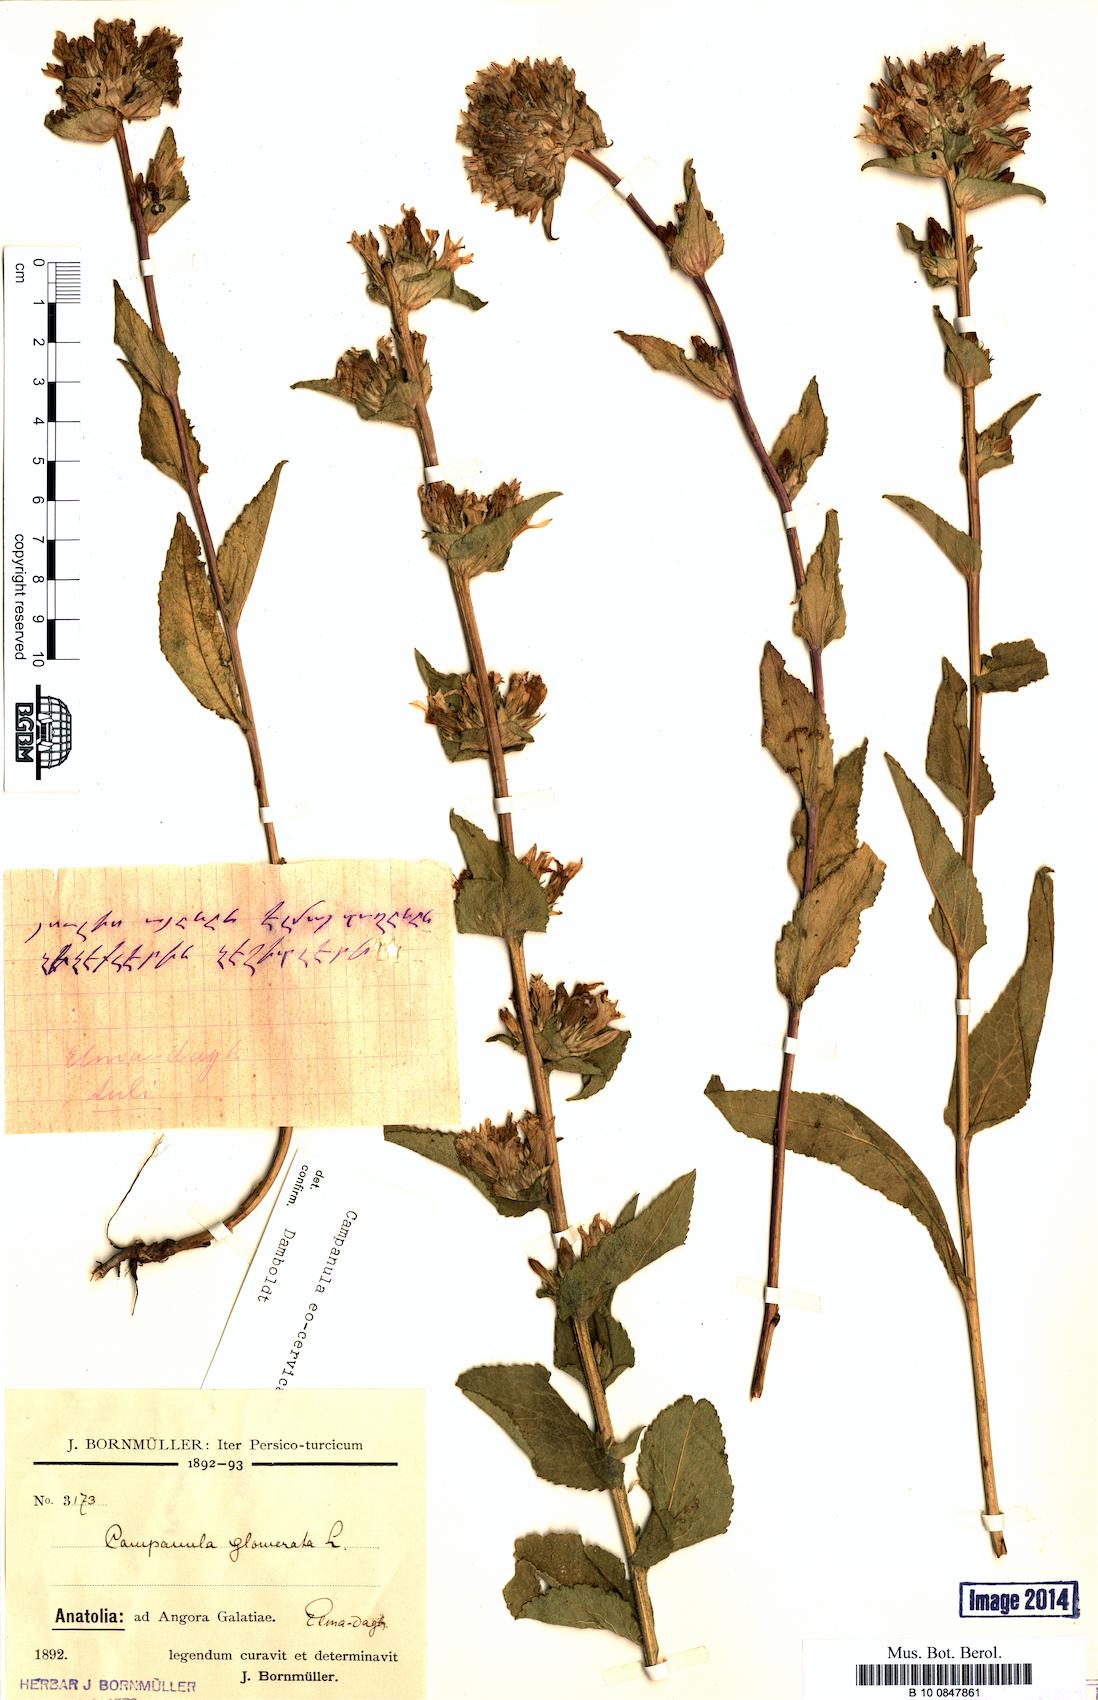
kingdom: Plantae
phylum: Tracheophyta
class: Magnoliopsida
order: Asterales
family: Campanulaceae
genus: Campanula
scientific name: Campanula glomerata
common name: Clustered bellflower
